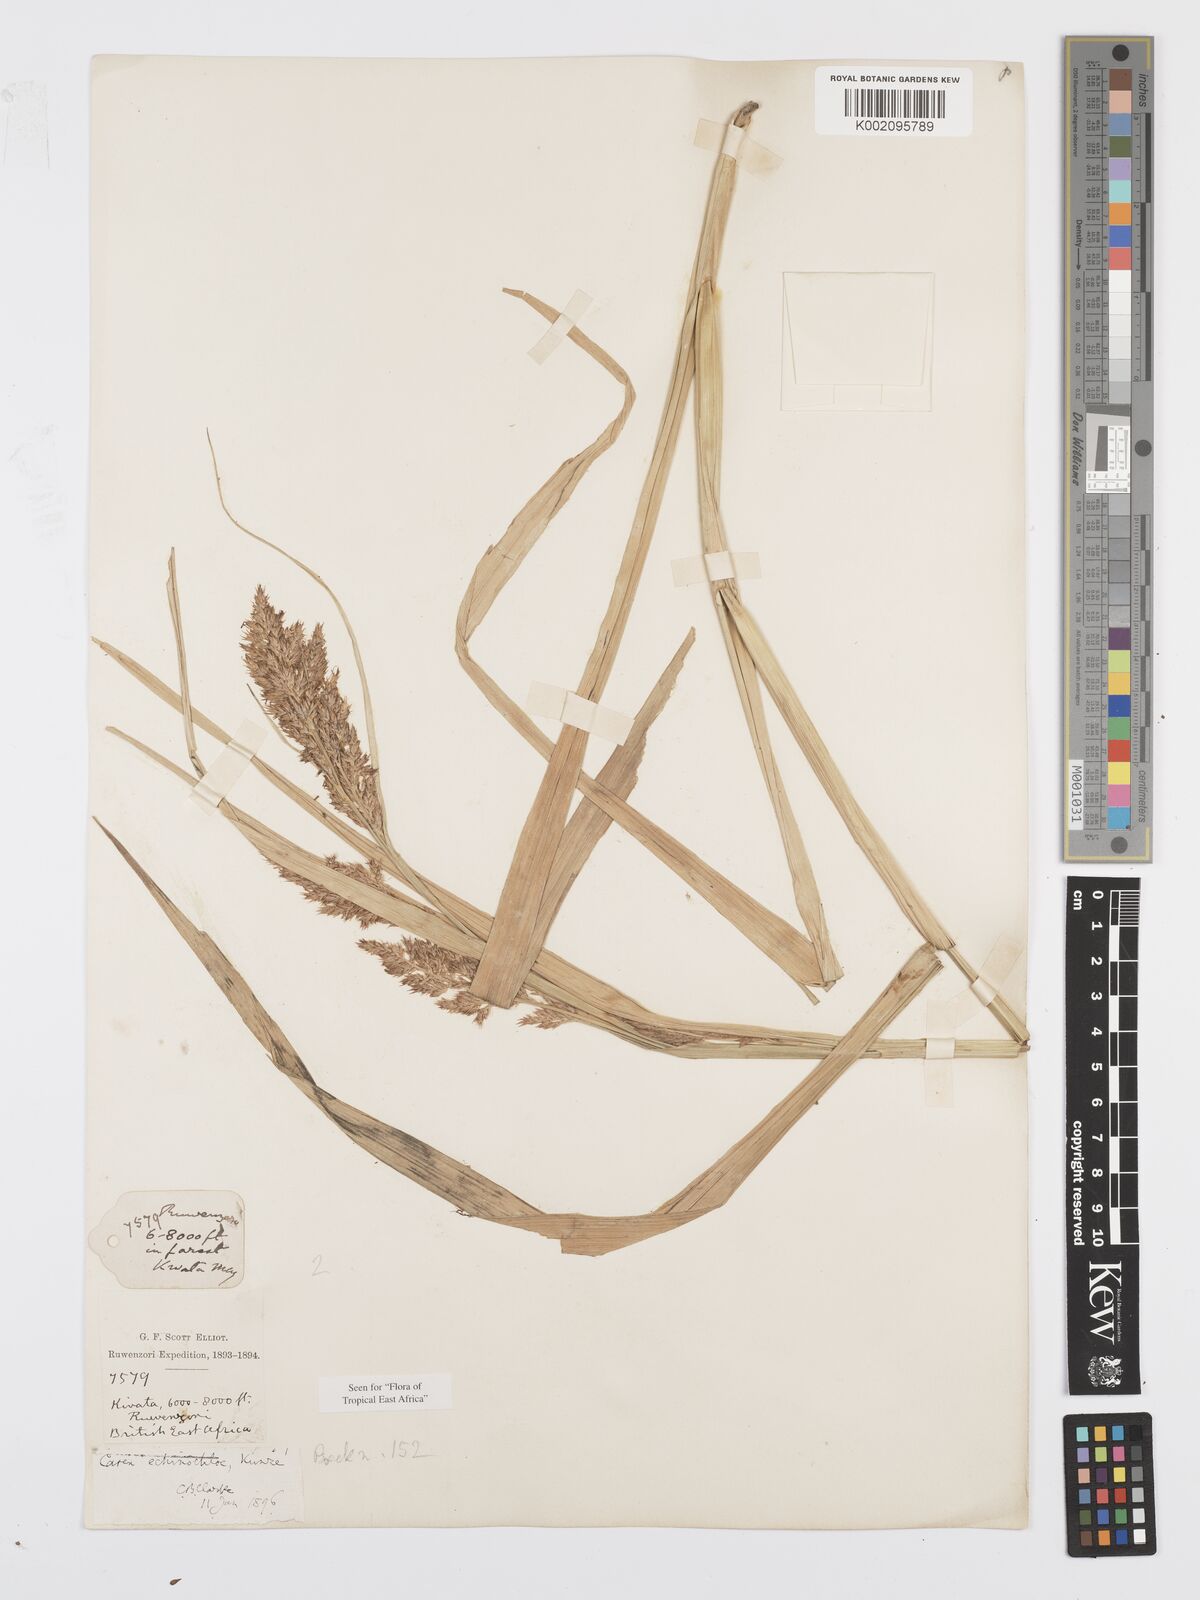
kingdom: Plantae
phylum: Tracheophyta
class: Liliopsida
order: Poales
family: Cyperaceae
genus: Carex
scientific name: Carex echinochloe
